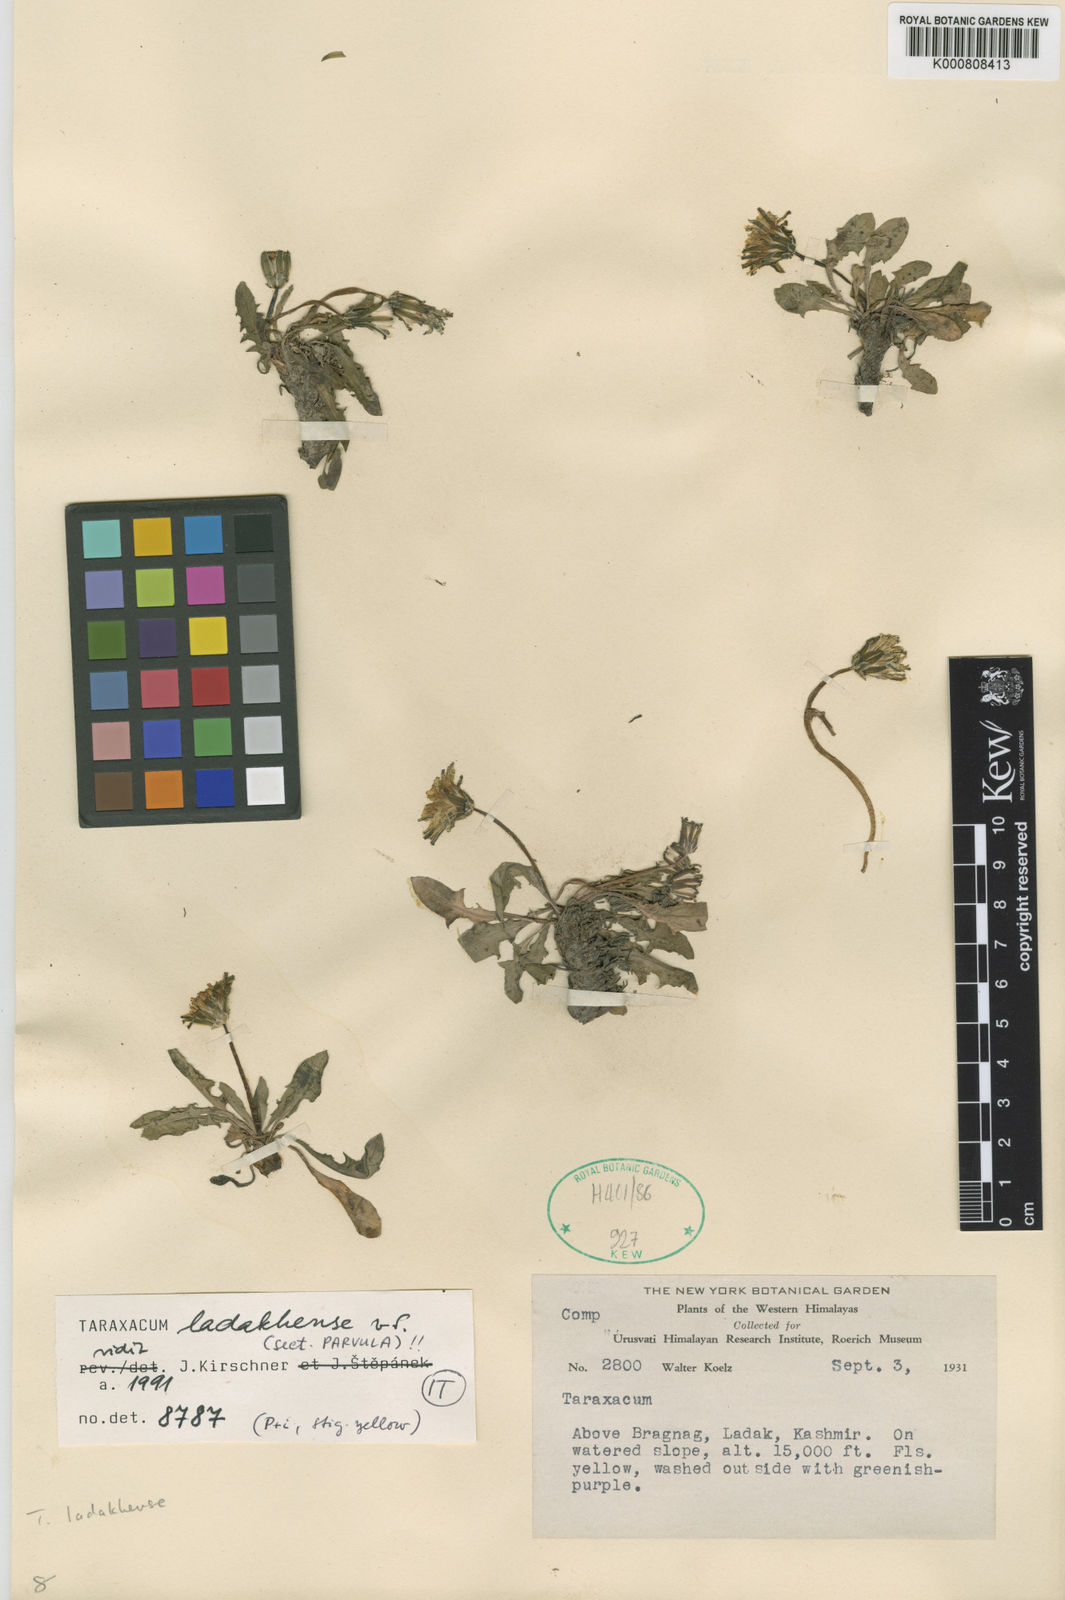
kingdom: Plantae
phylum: Tracheophyta
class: Magnoliopsida
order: Asterales
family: Asteraceae
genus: Taraxacum
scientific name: Taraxacum ladakense
